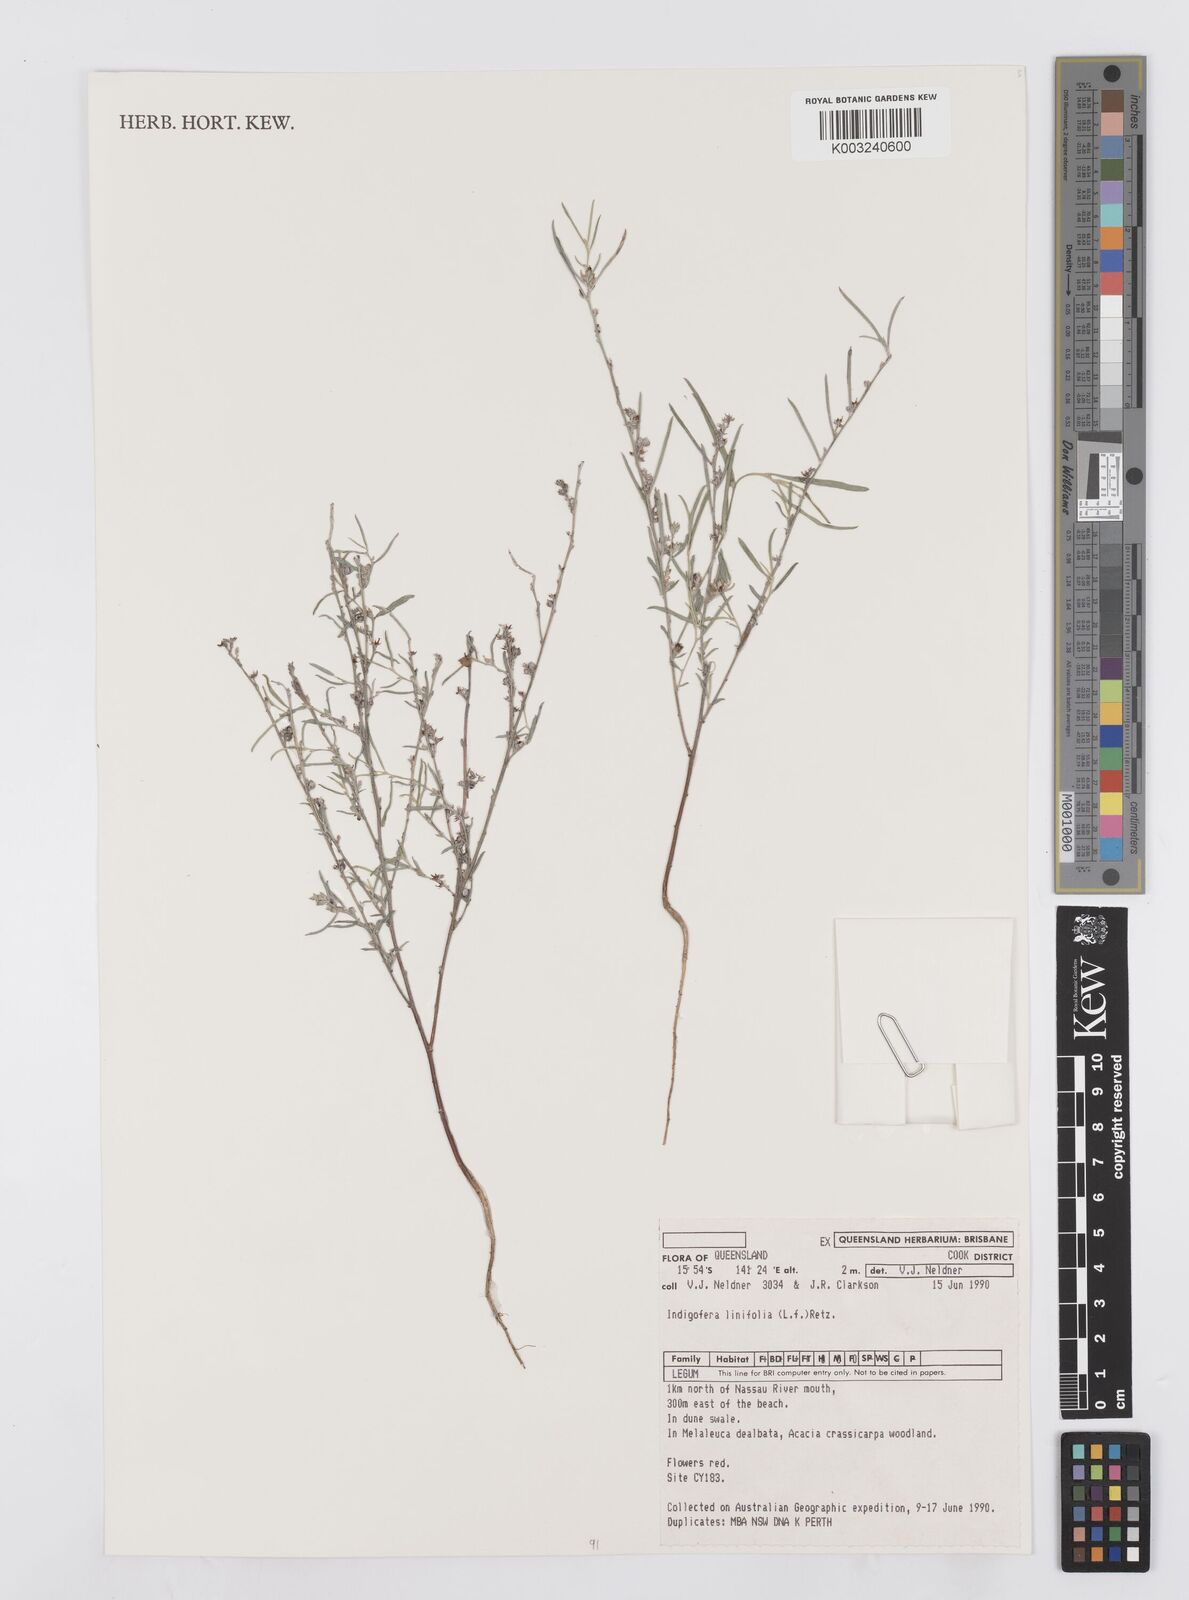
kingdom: Plantae
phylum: Tracheophyta
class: Magnoliopsida
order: Fabales
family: Fabaceae
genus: Indigofera
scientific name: Indigofera linifolia
